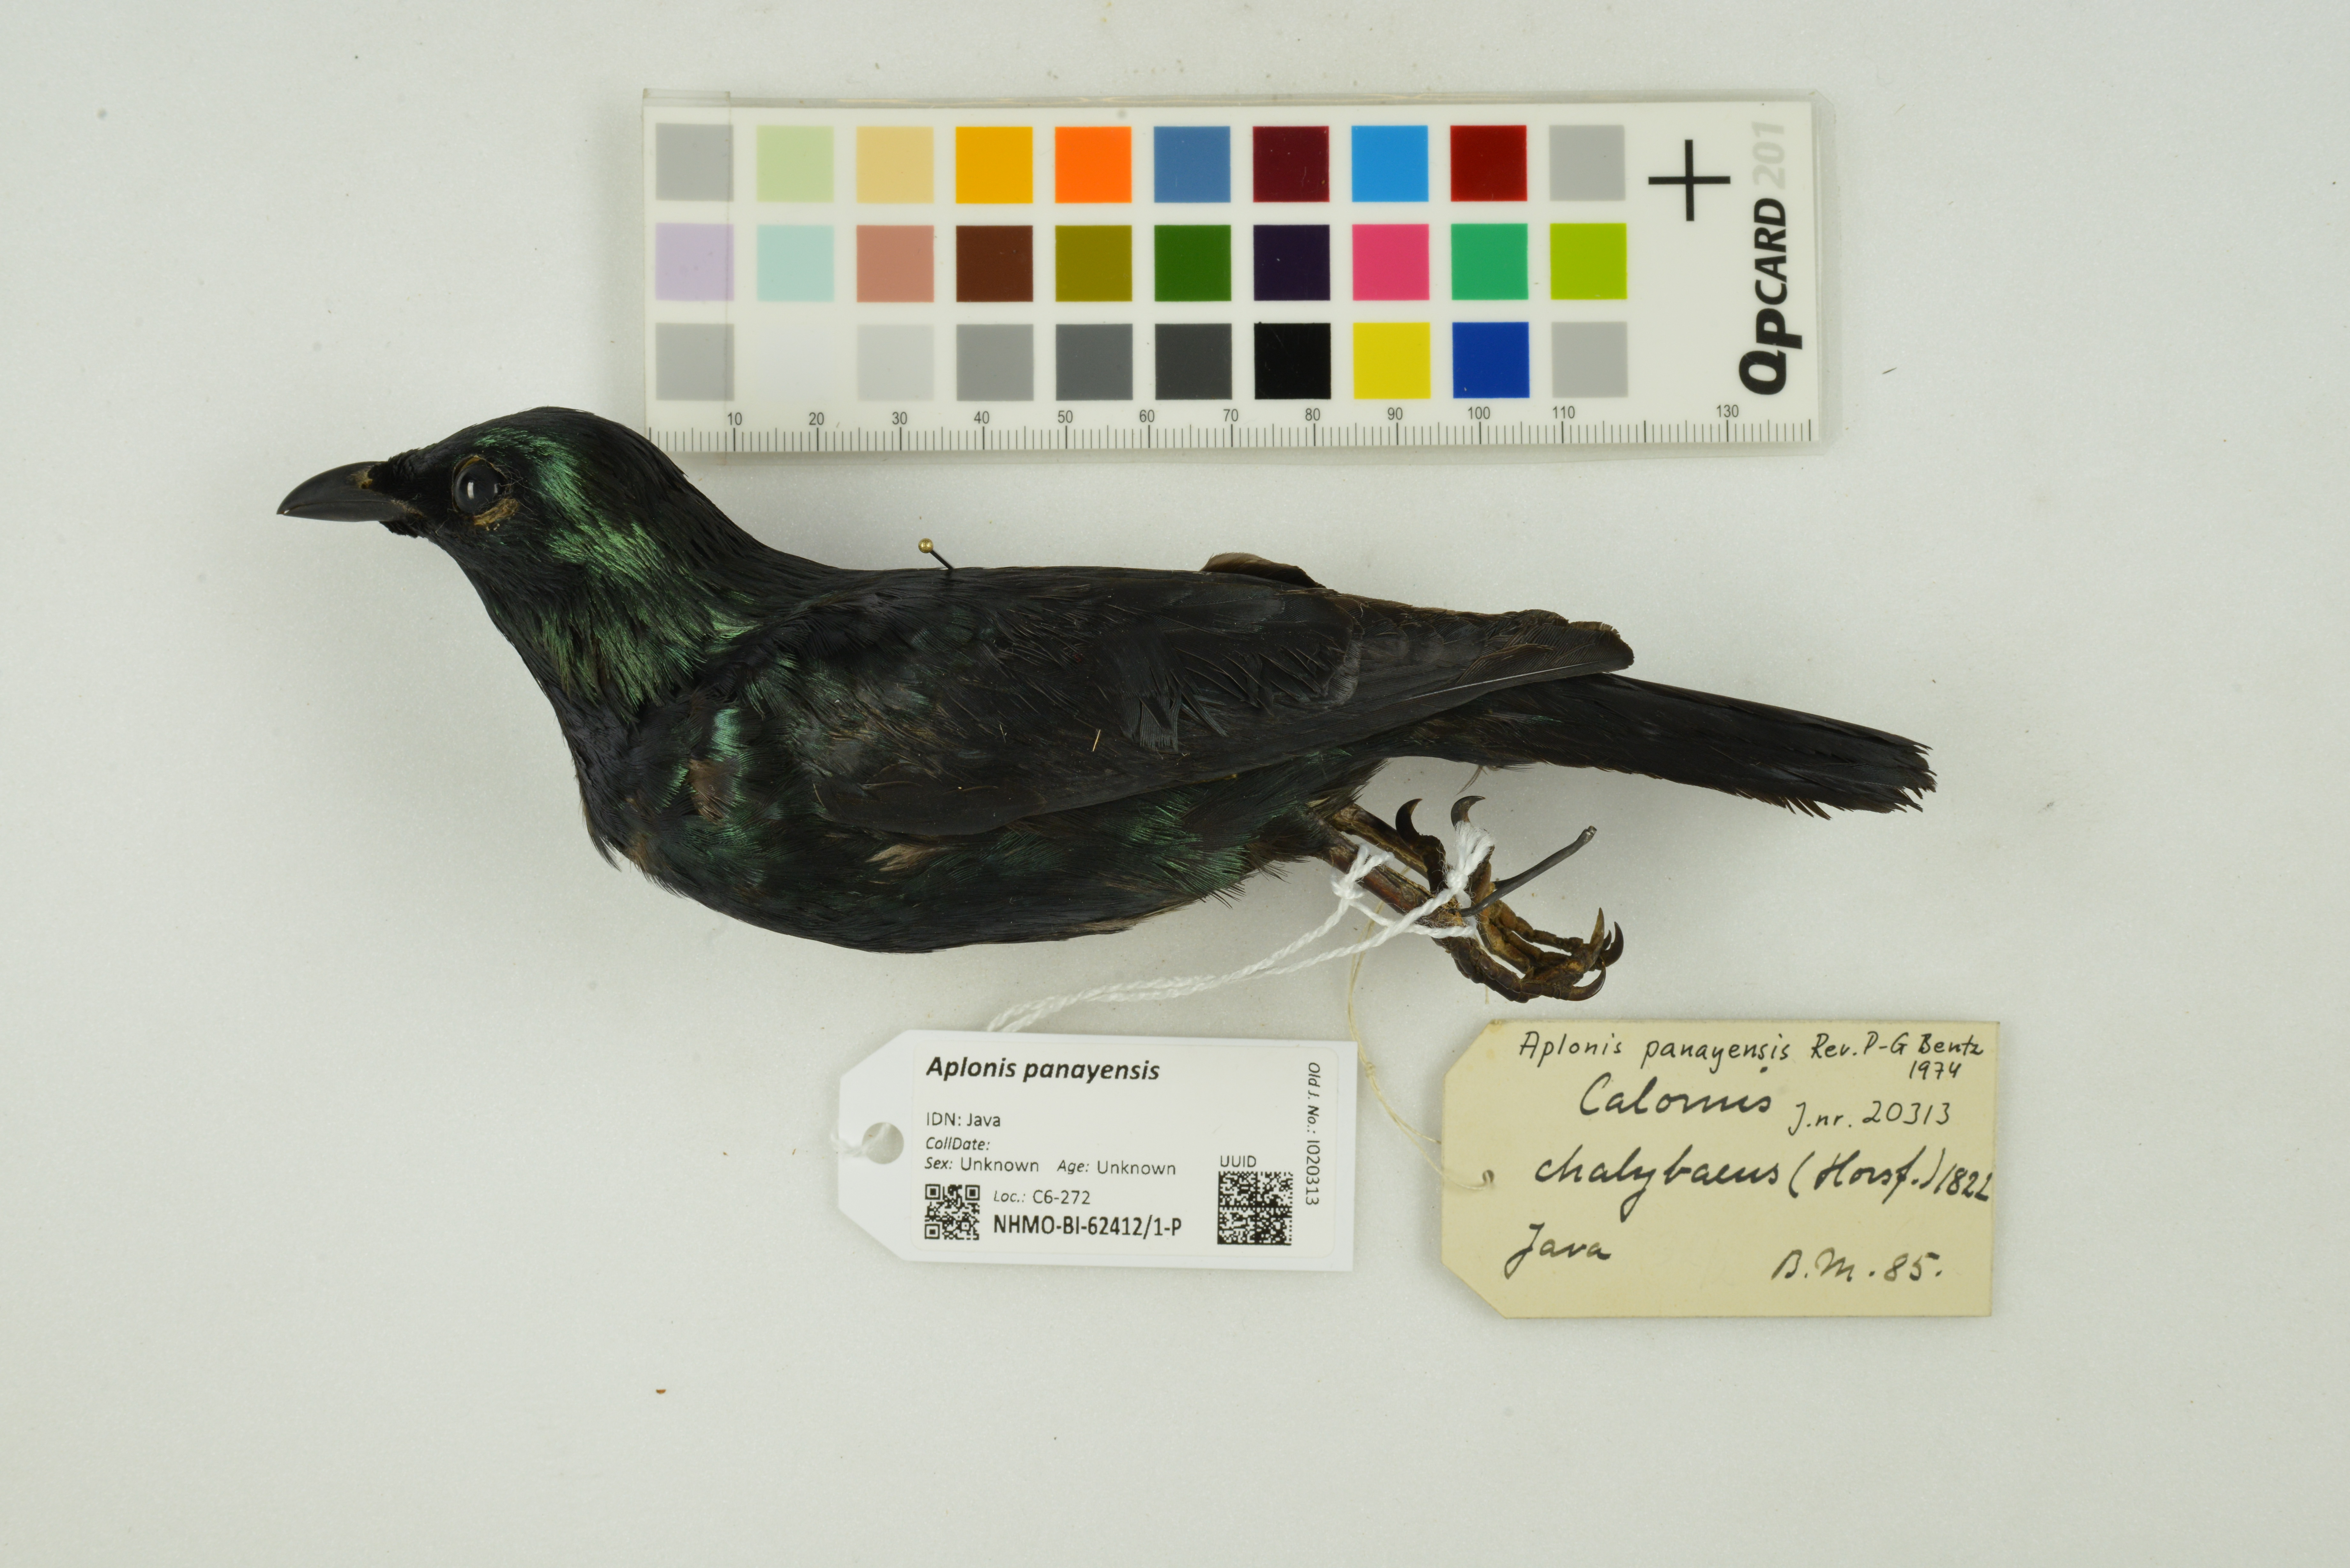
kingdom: Animalia
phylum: Chordata
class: Aves
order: Passeriformes
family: Sturnidae
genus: Aplonis
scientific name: Aplonis panayensis
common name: Asian glossy starling
